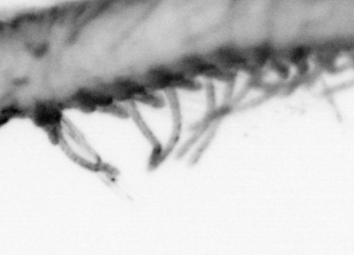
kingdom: Animalia
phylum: Annelida
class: Polychaeta
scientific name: Polychaeta
